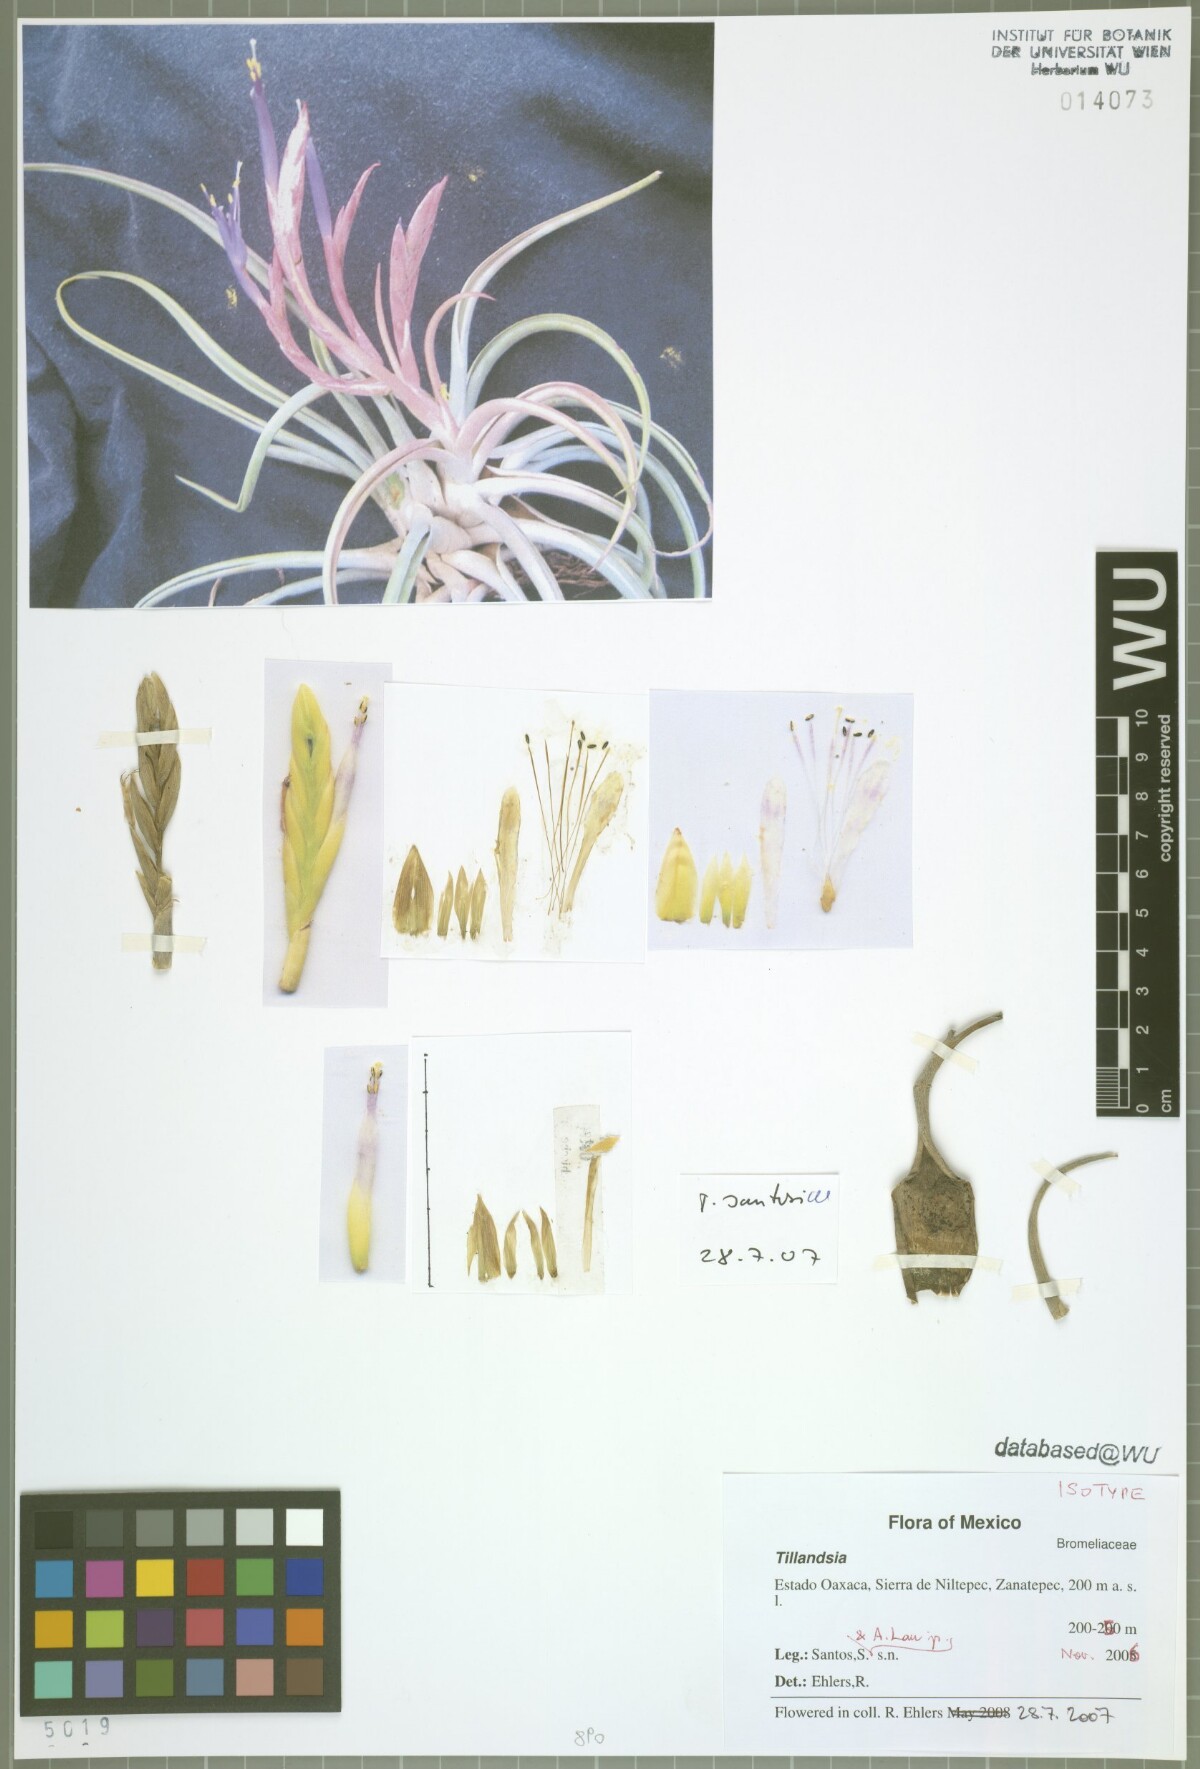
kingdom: Plantae
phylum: Tracheophyta
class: Liliopsida
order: Poales
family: Bromeliaceae
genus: Tillandsia
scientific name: Tillandsia santosiae
